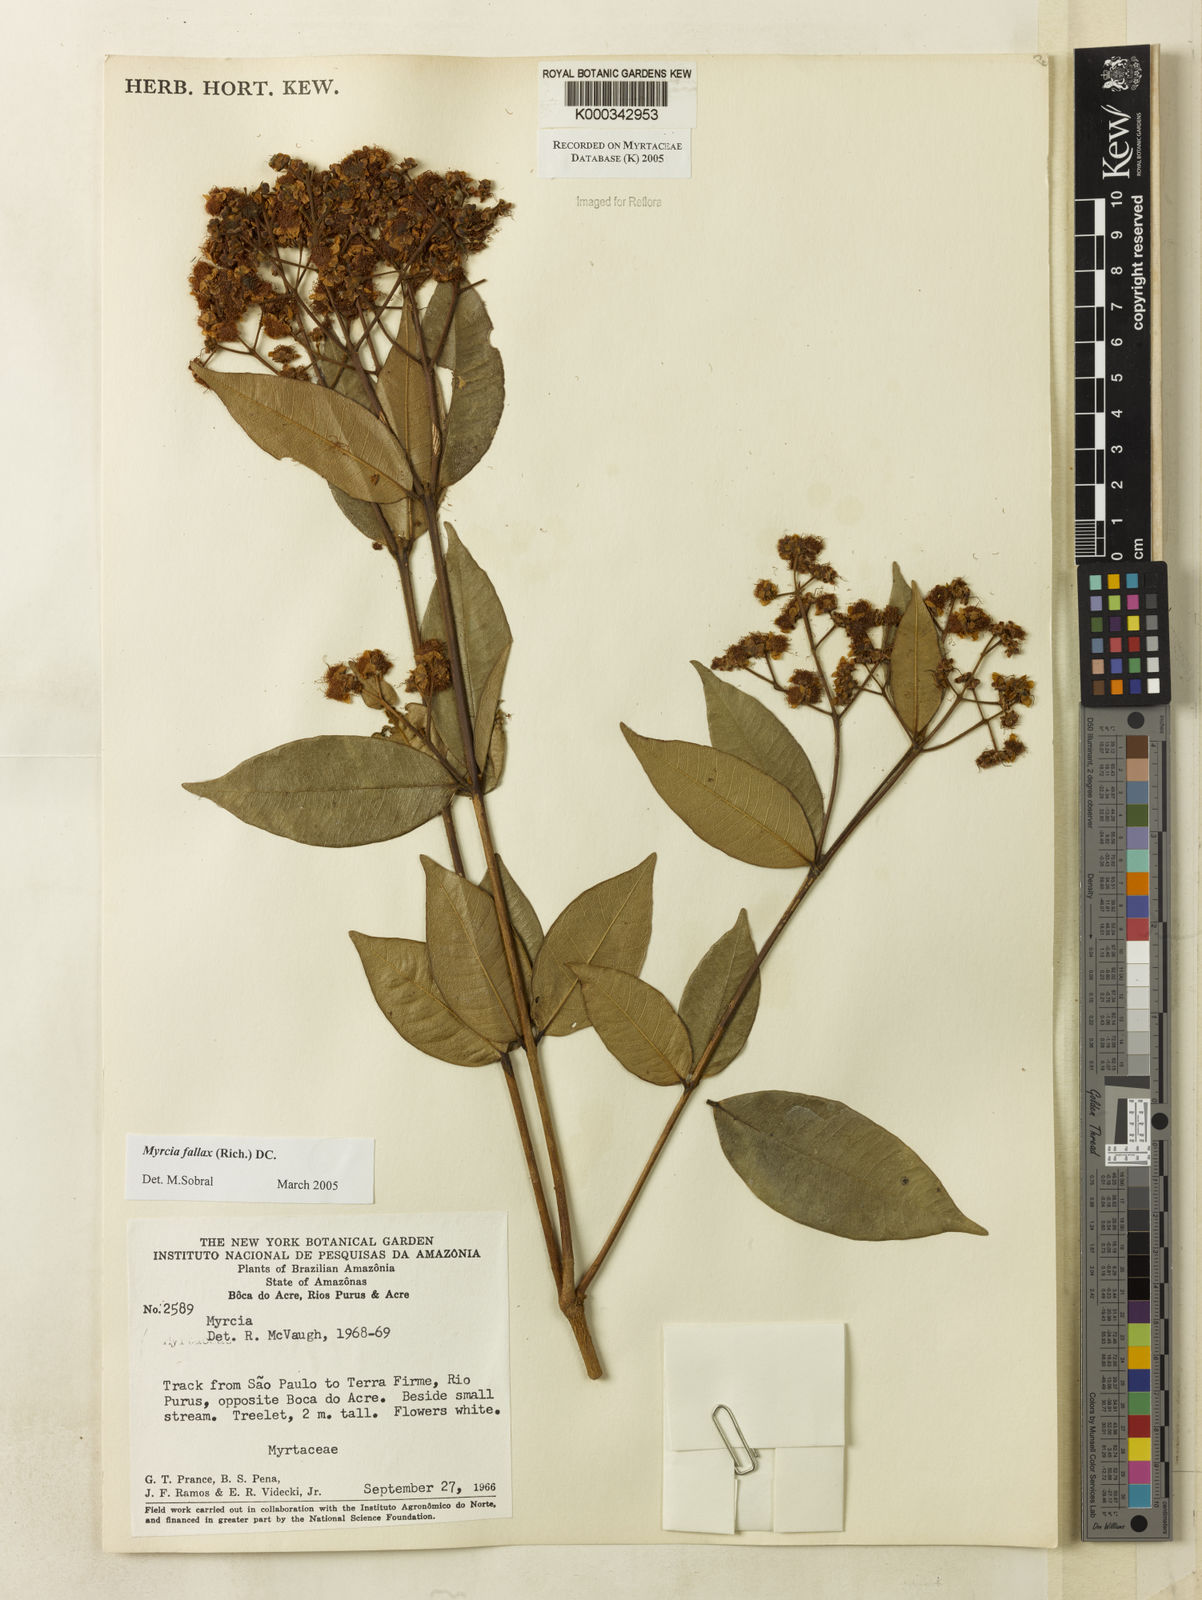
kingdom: Plantae
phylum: Tracheophyta
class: Magnoliopsida
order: Myrtales
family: Myrtaceae
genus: Myrcia
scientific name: Myrcia splendens
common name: Surinam cherry
